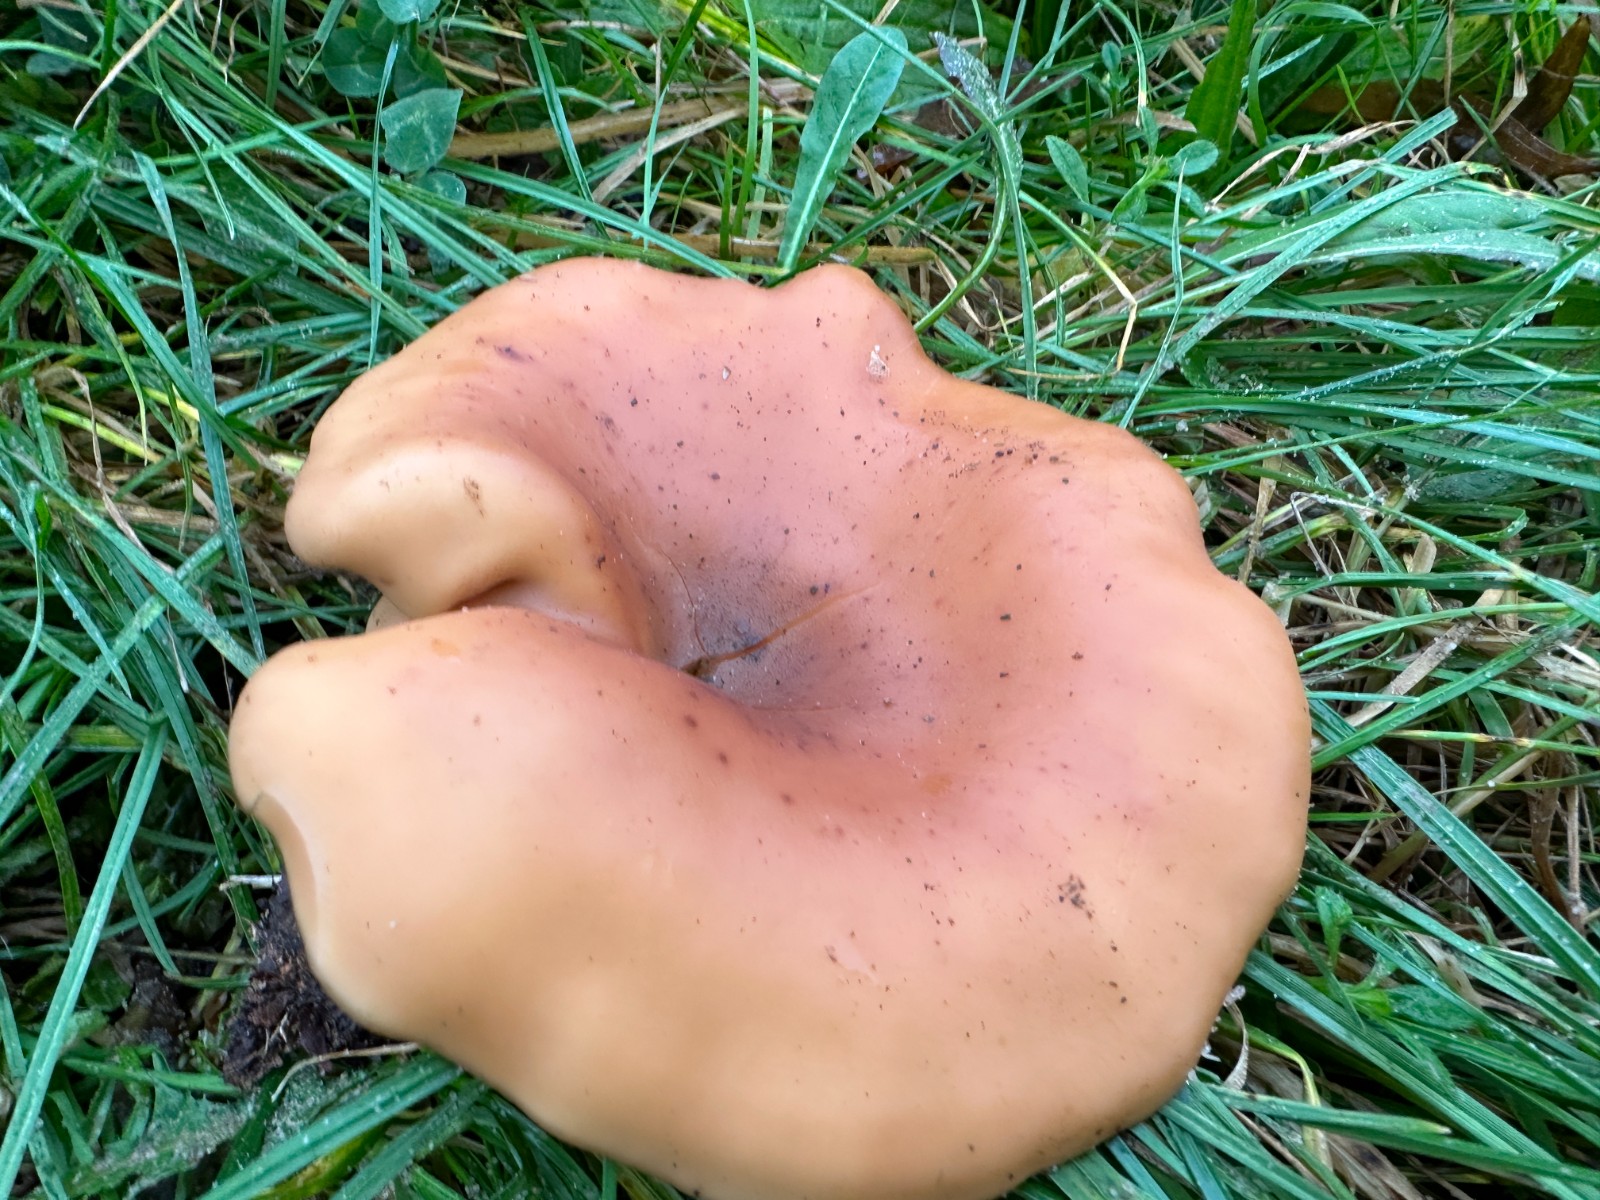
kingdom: Fungi
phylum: Basidiomycota
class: Agaricomycetes
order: Agaricales
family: Tricholomataceae
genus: Paralepista
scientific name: Paralepista flaccida
